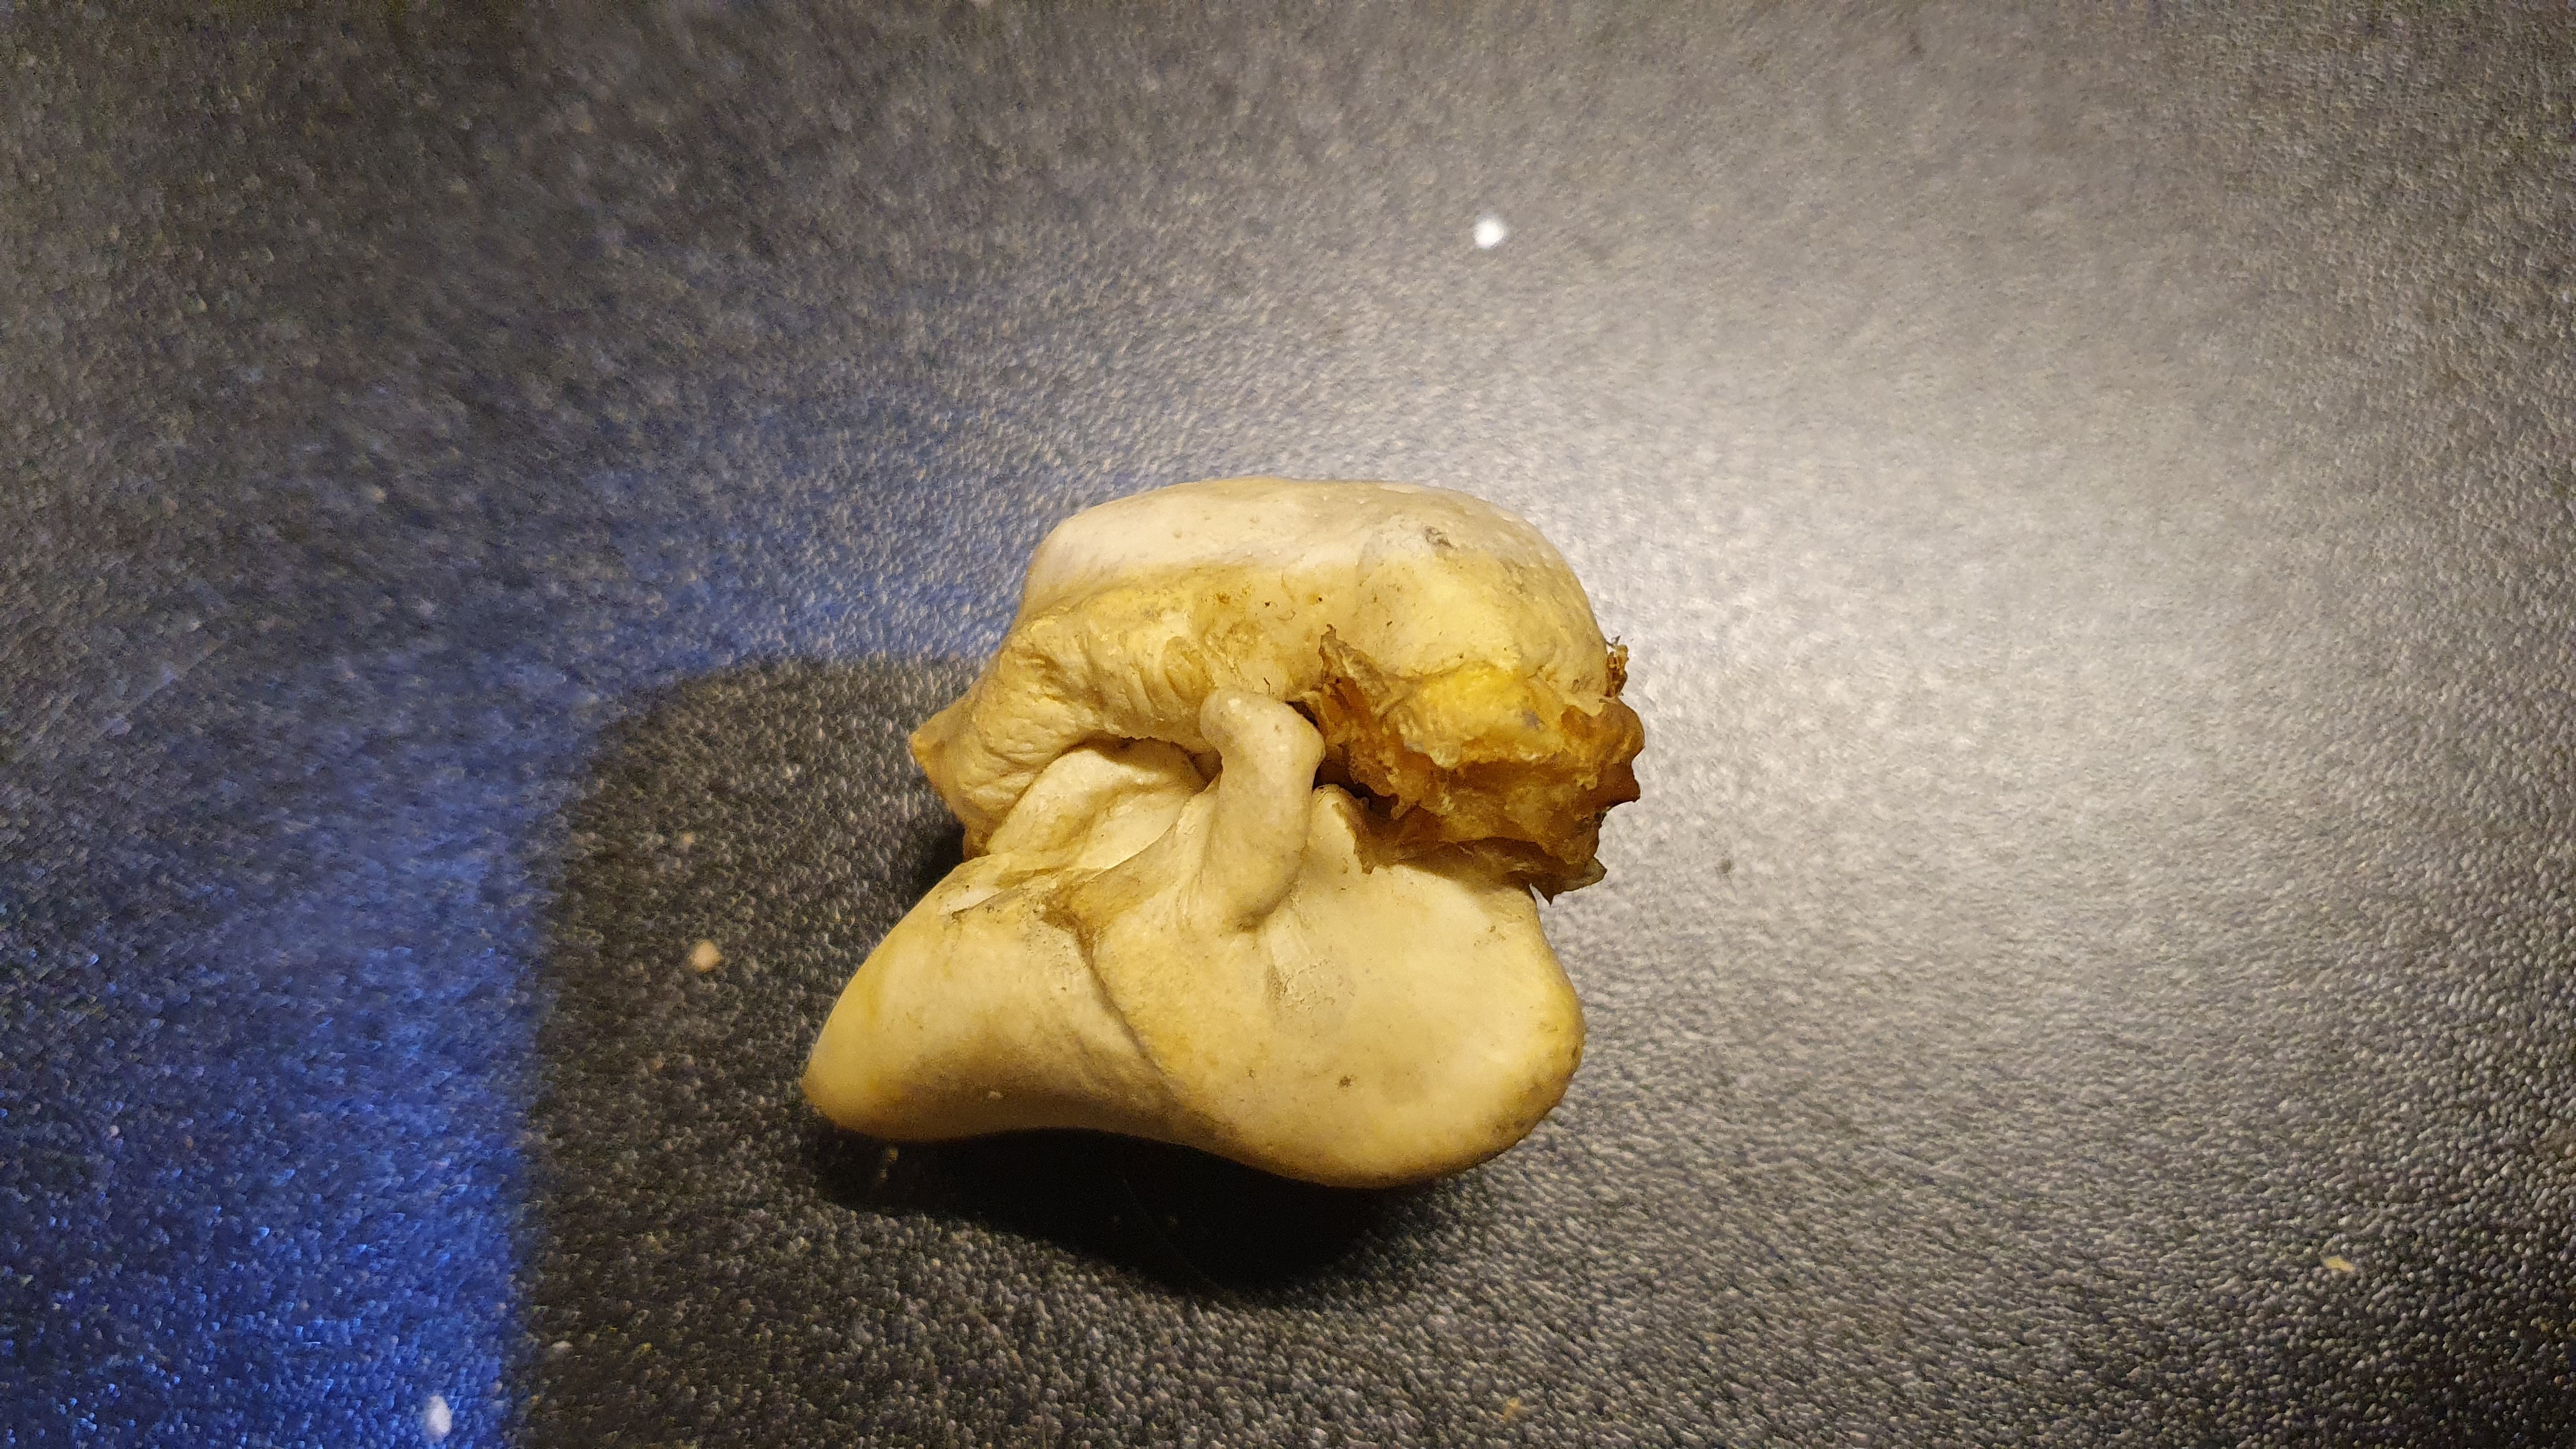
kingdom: Animalia
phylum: Chordata
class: Mammalia
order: Cetacea
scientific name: Cetacea
